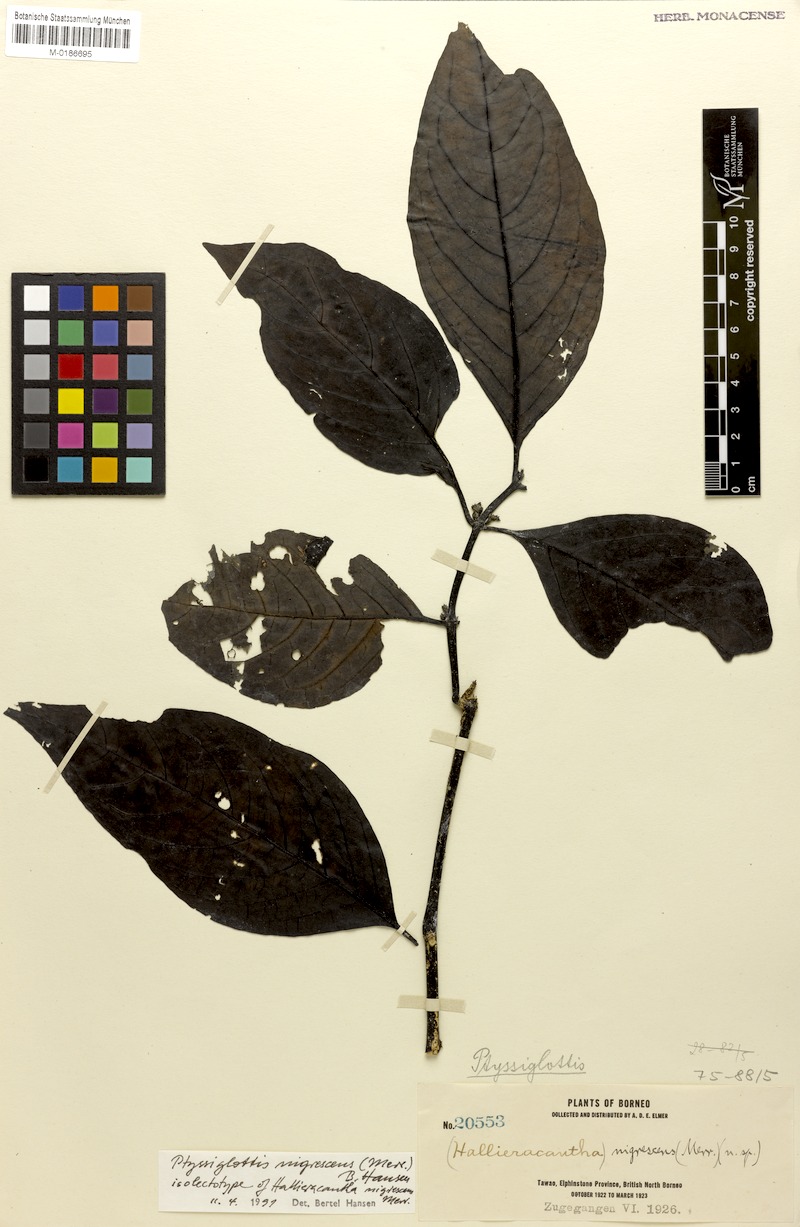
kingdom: Plantae
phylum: Tracheophyta
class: Magnoliopsida
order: Lamiales
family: Acanthaceae
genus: Ptyssiglottis
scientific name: Ptyssiglottis nigrescens
